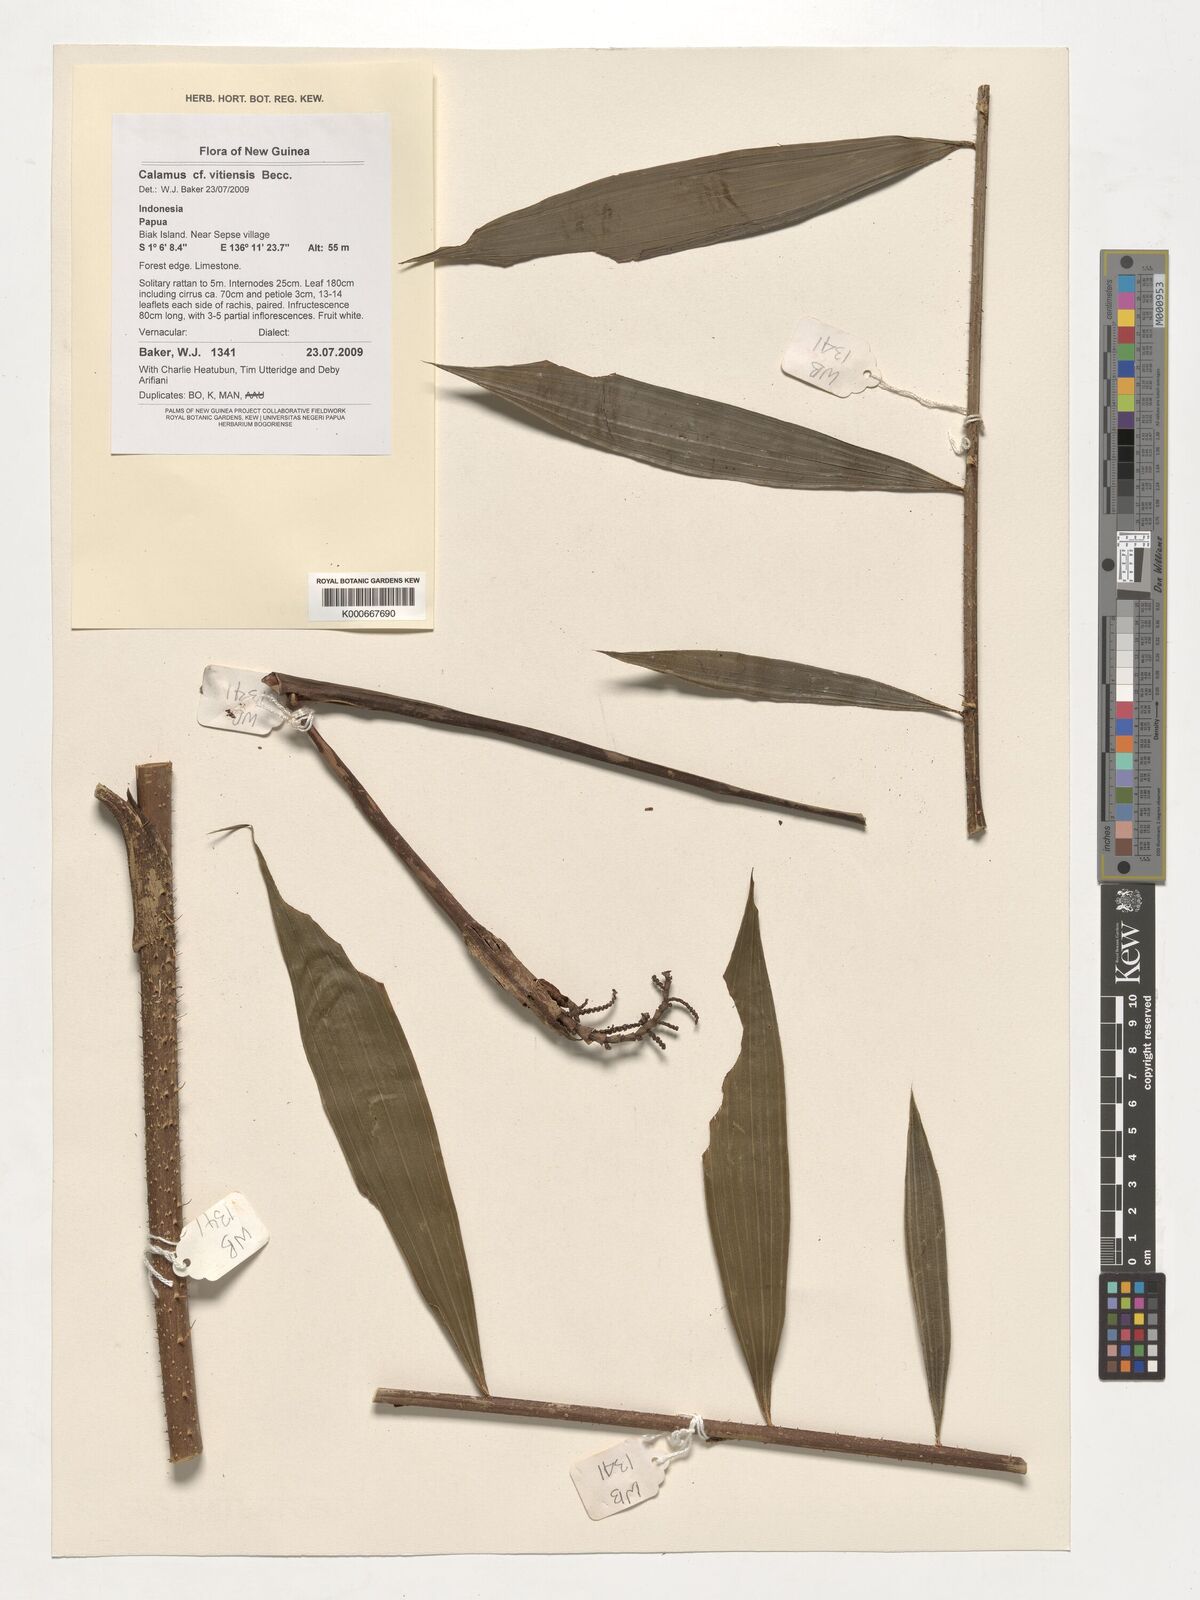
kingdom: Plantae
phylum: Tracheophyta
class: Liliopsida
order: Arecales
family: Arecaceae
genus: Calamus
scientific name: Calamus vitiensis
